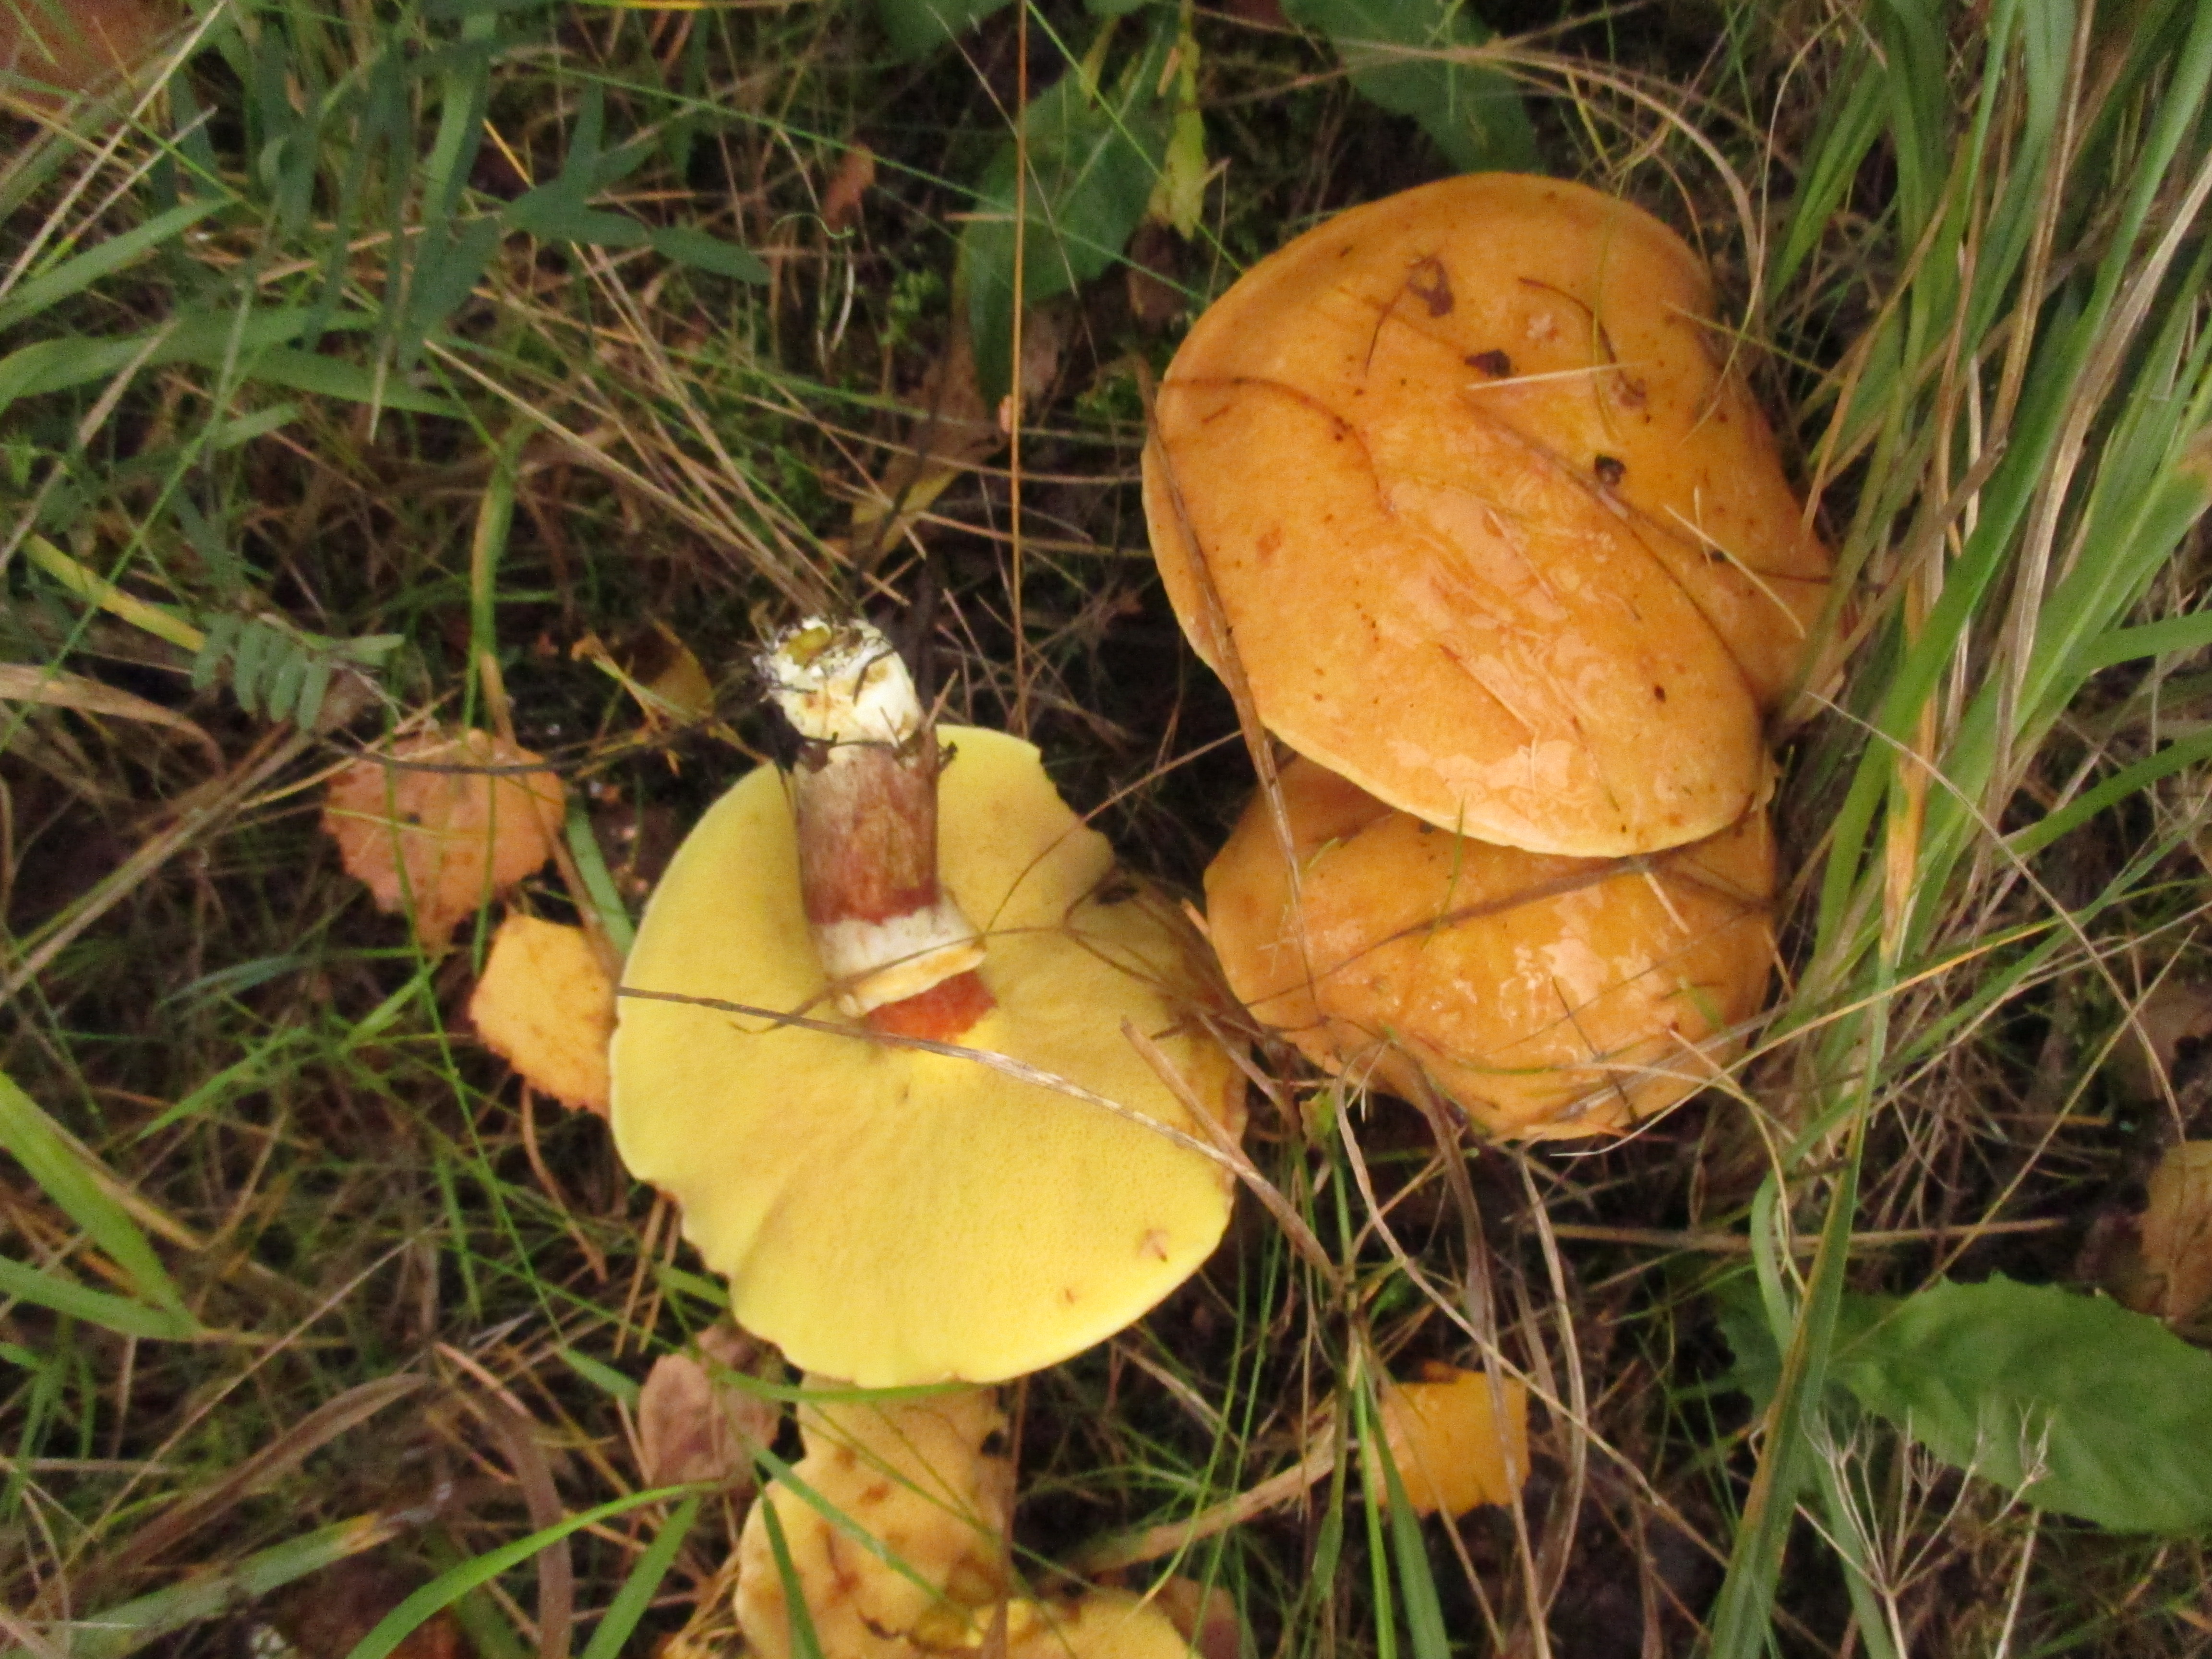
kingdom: Fungi
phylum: Basidiomycota
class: Agaricomycetes
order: Boletales
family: Suillaceae
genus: Suillus
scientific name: Suillus grevillei
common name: Larch bolete
